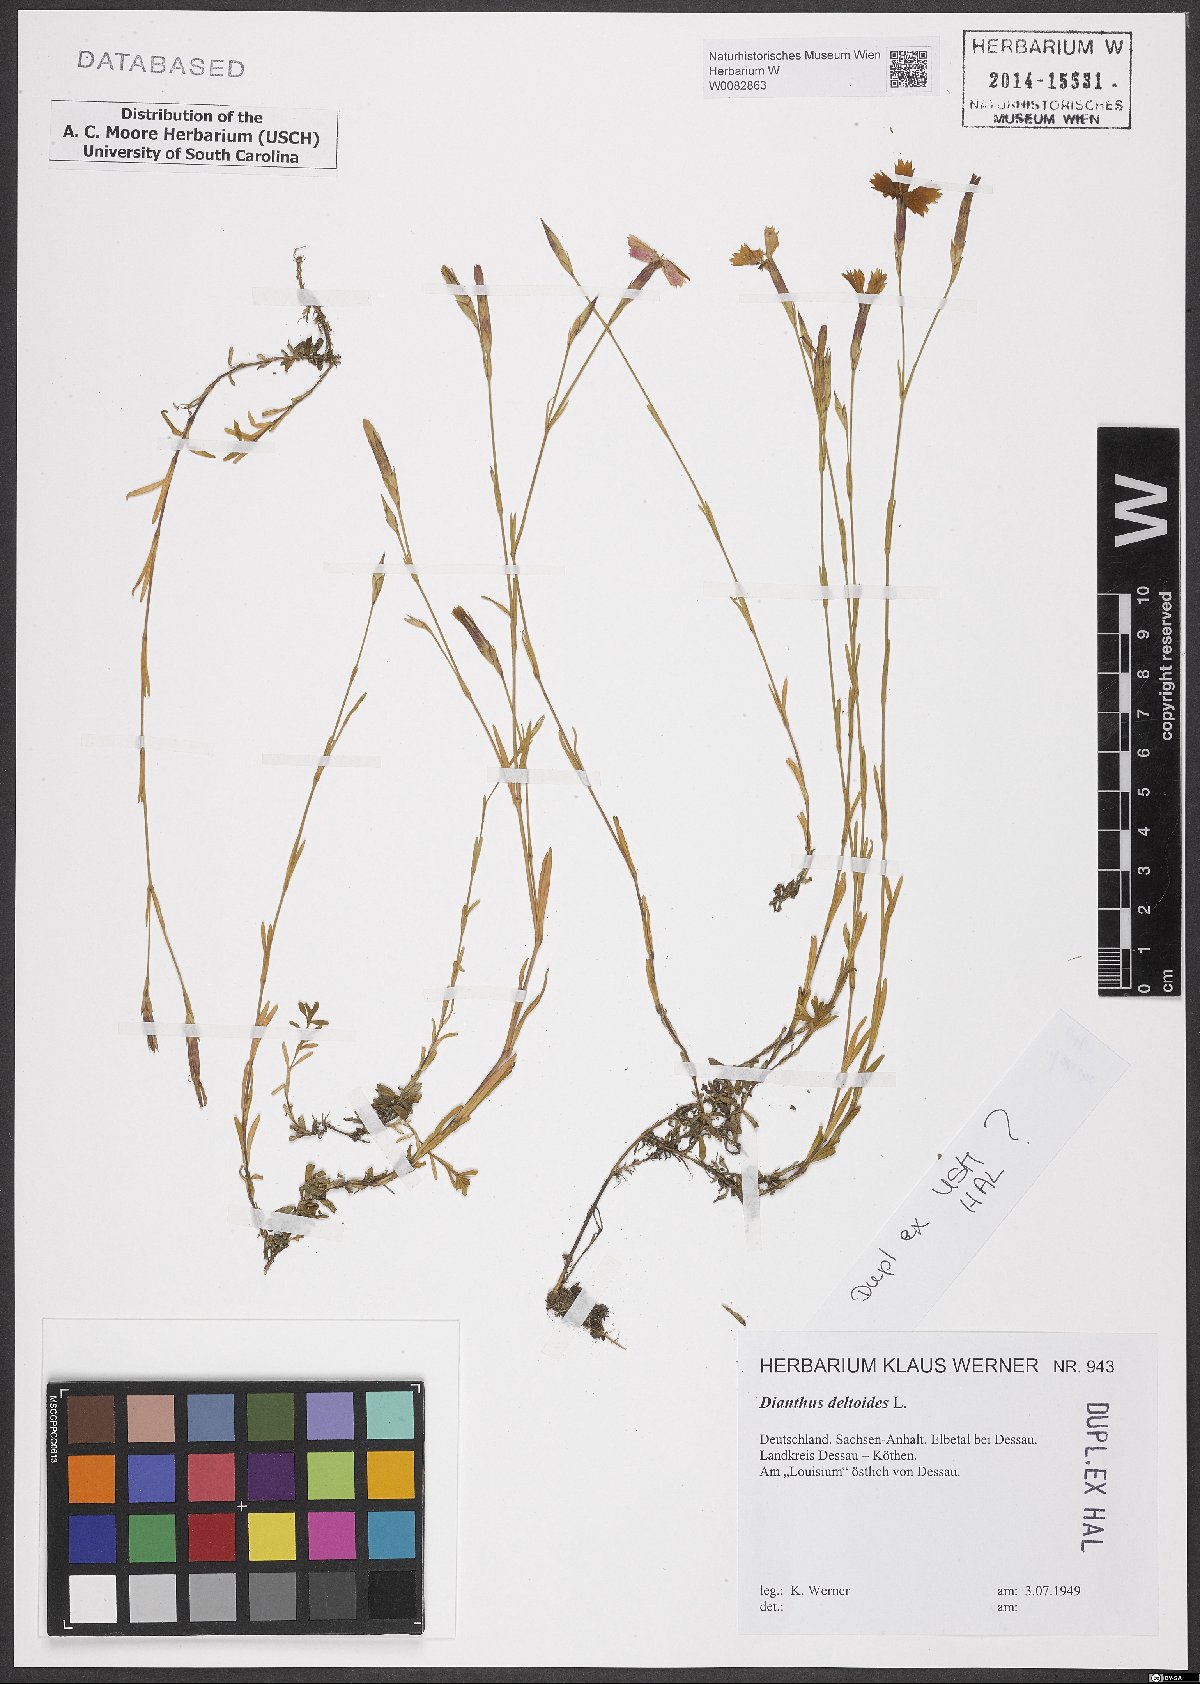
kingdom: Plantae
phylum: Tracheophyta
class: Magnoliopsida
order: Caryophyllales
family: Caryophyllaceae
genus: Dianthus
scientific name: Dianthus deltoides
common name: Maiden pink
